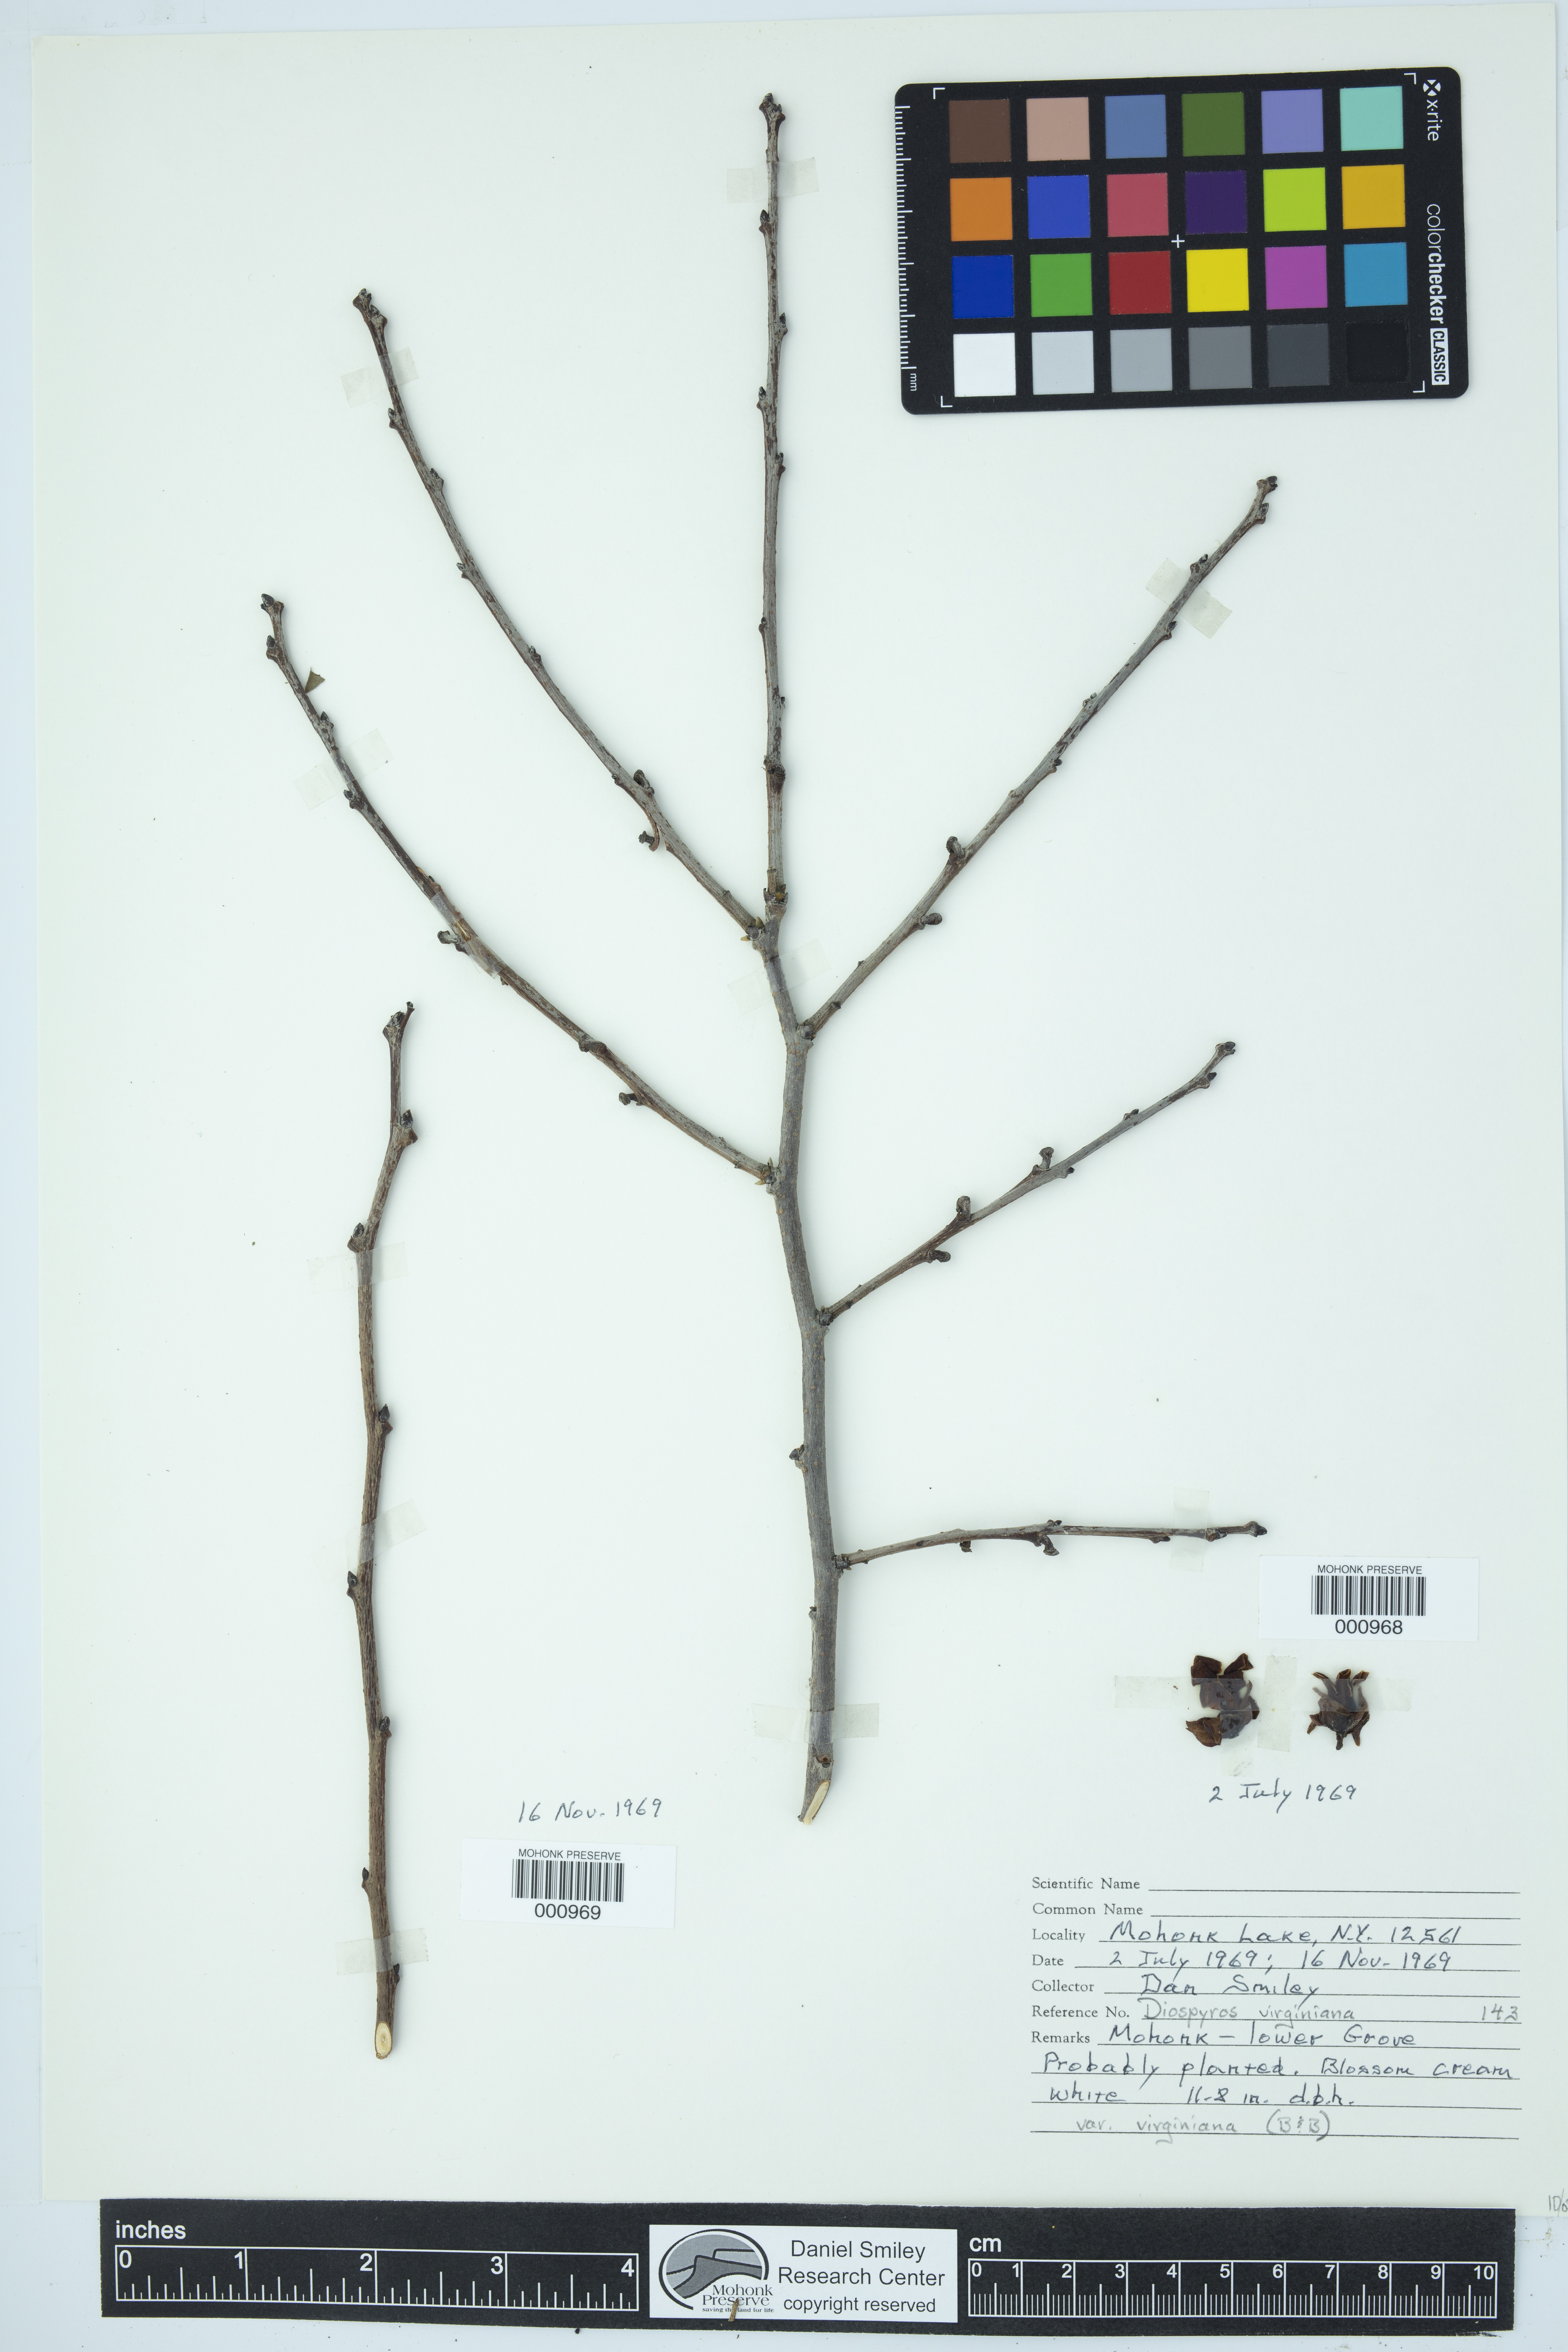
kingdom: Plantae
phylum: Tracheophyta
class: Magnoliopsida
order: Ericales
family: Ebenaceae
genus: Diospyros
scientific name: Diospyros virginiana
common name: Persimmon
